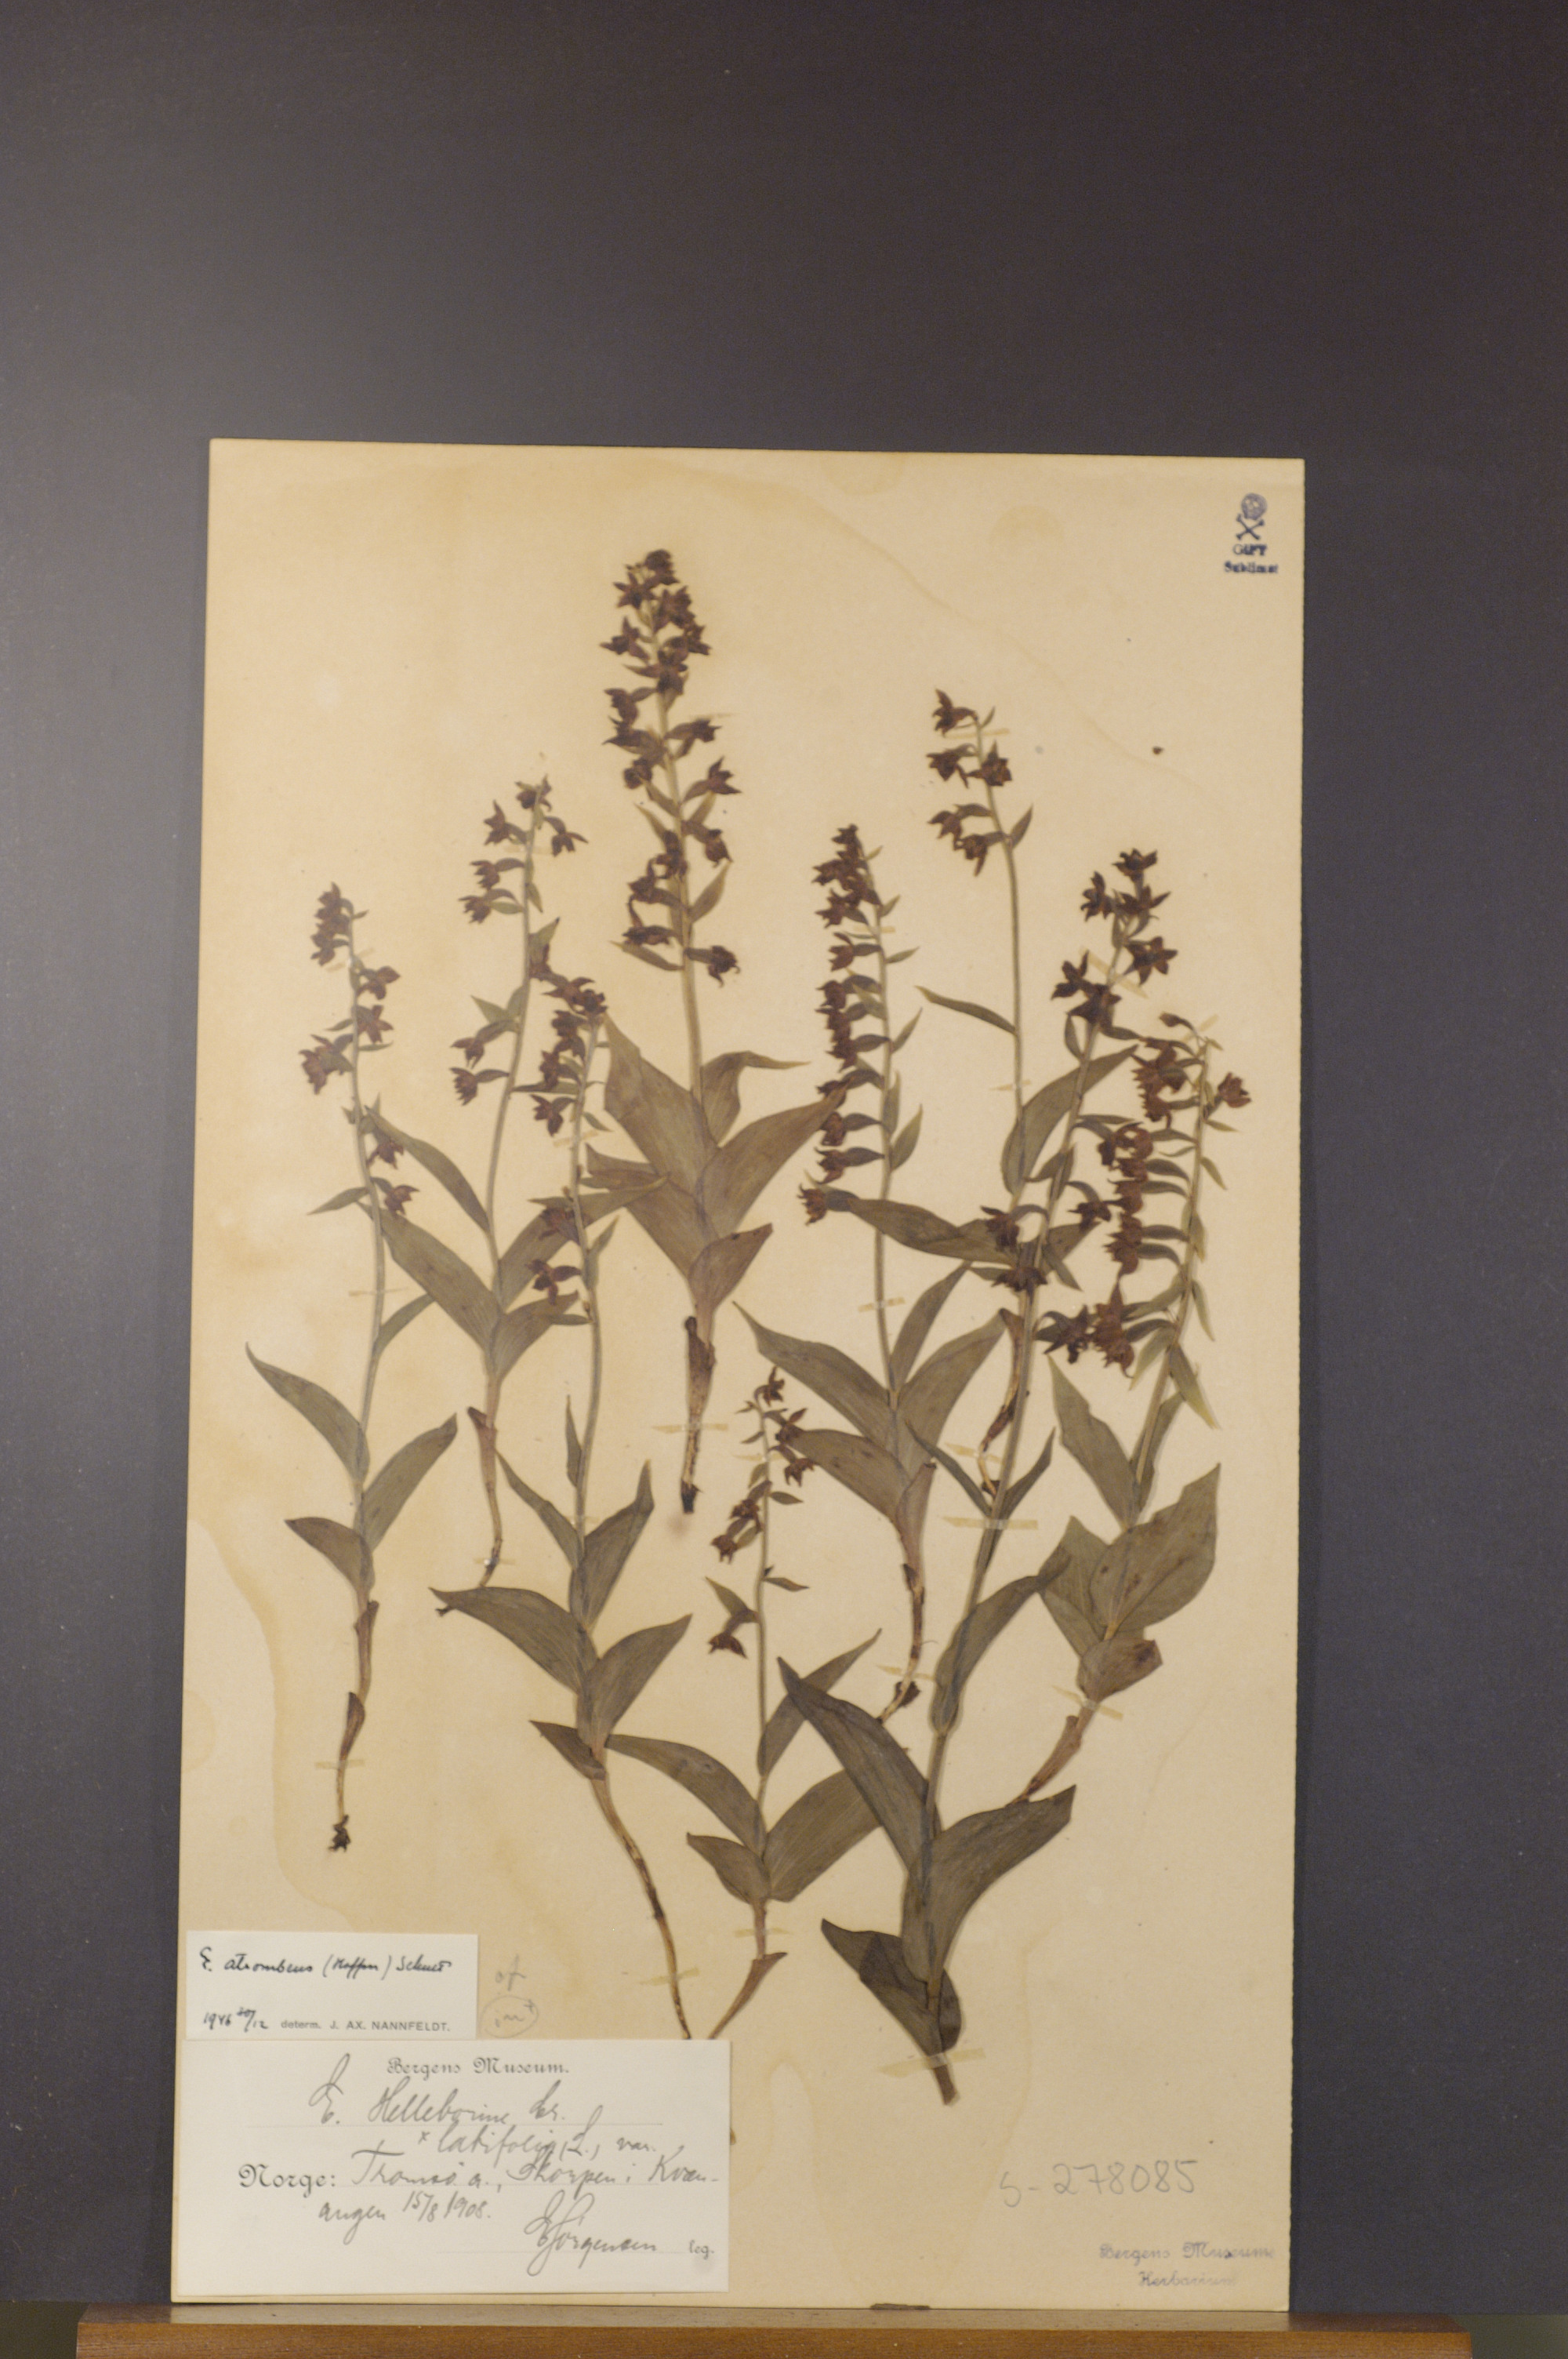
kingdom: Plantae
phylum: Tracheophyta
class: Liliopsida
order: Asparagales
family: Orchidaceae
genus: Epipactis
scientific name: Epipactis atrorubens
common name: Dark-red helleborine
